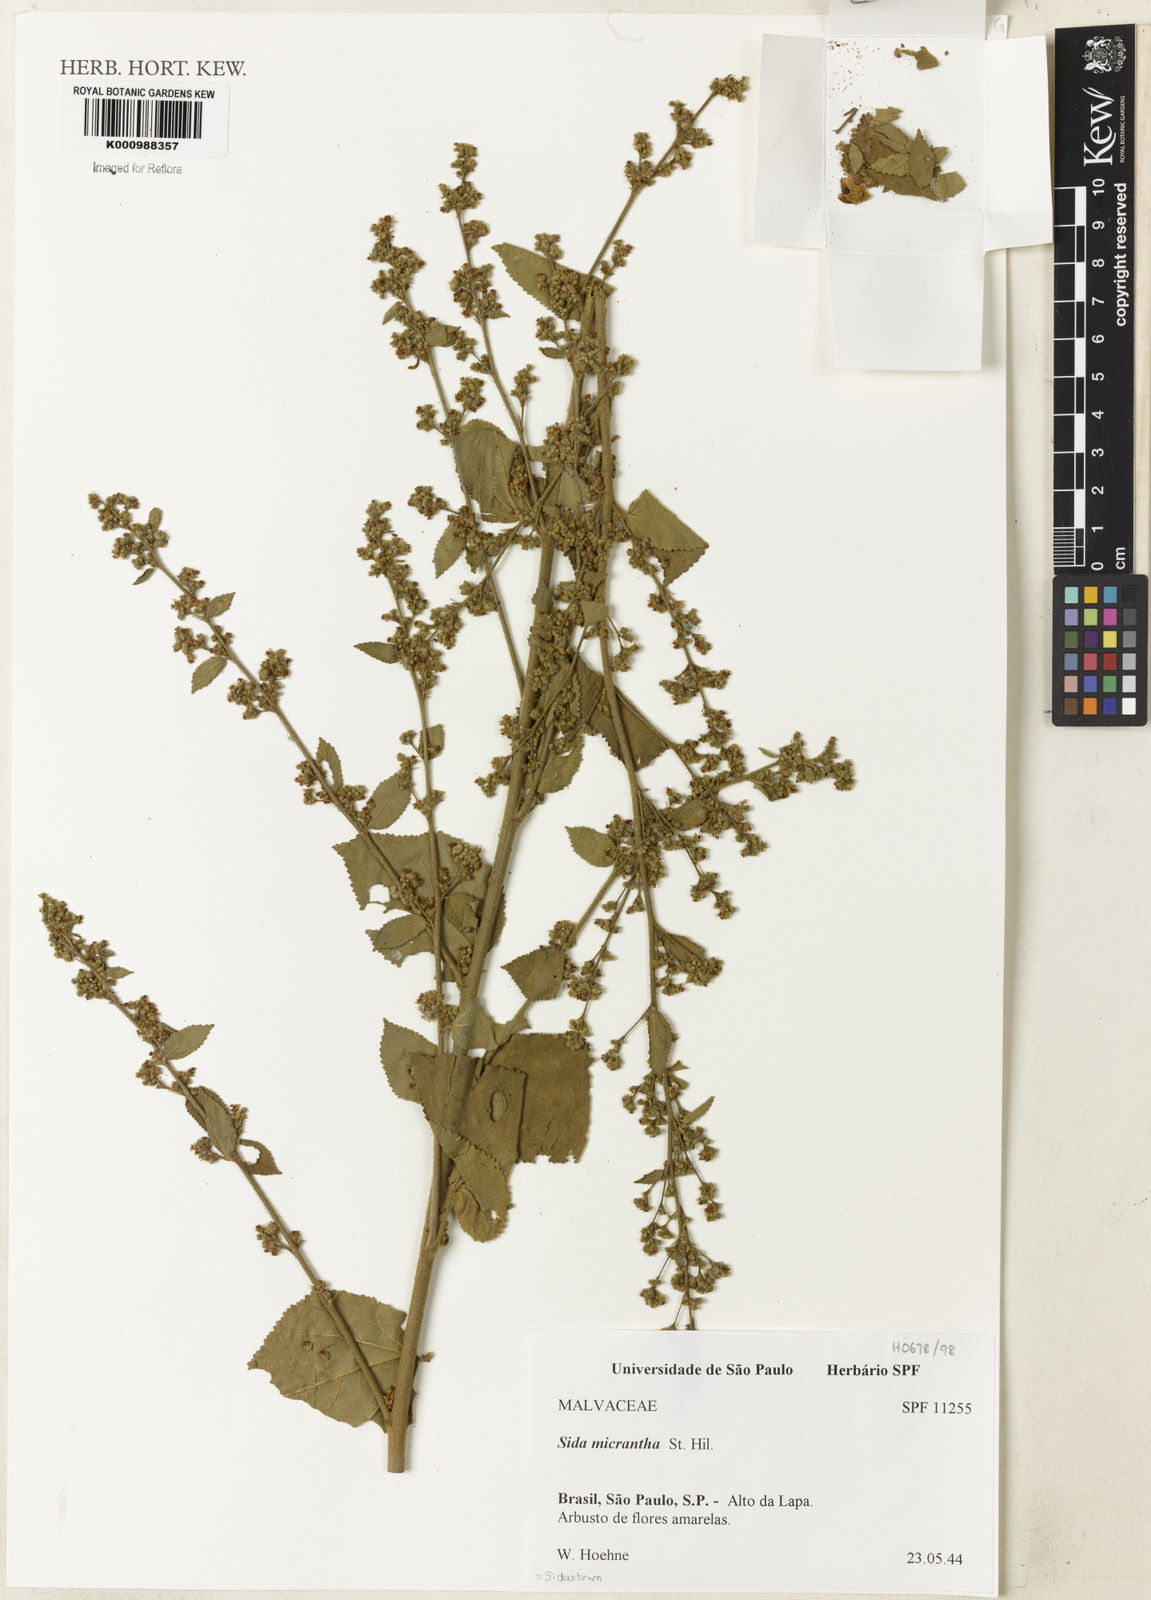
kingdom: Plantae
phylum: Tracheophyta
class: Magnoliopsida
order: Malvales
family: Malvaceae
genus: Sidastrum
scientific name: Sidastrum micranthum
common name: Dainty sandmallow
